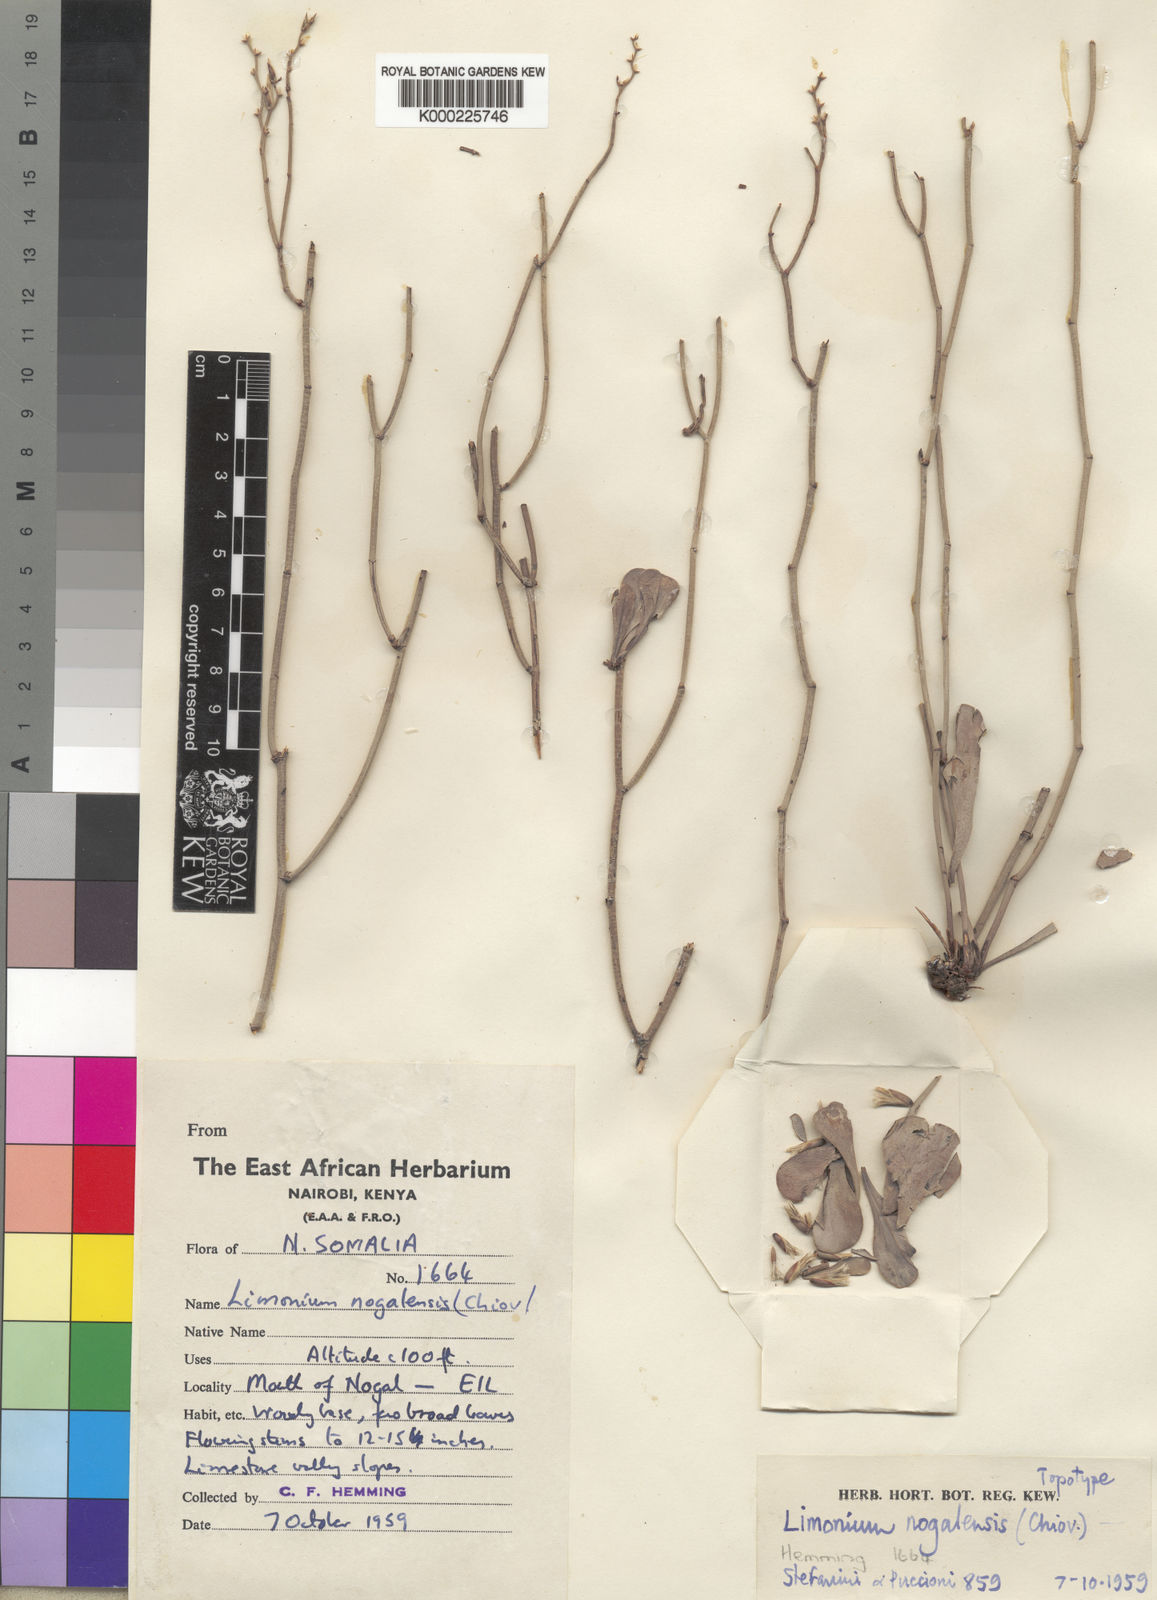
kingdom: Plantae
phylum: Tracheophyta
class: Magnoliopsida
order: Caryophyllales
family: Plumbaginaceae
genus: Limonium
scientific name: Limonium
